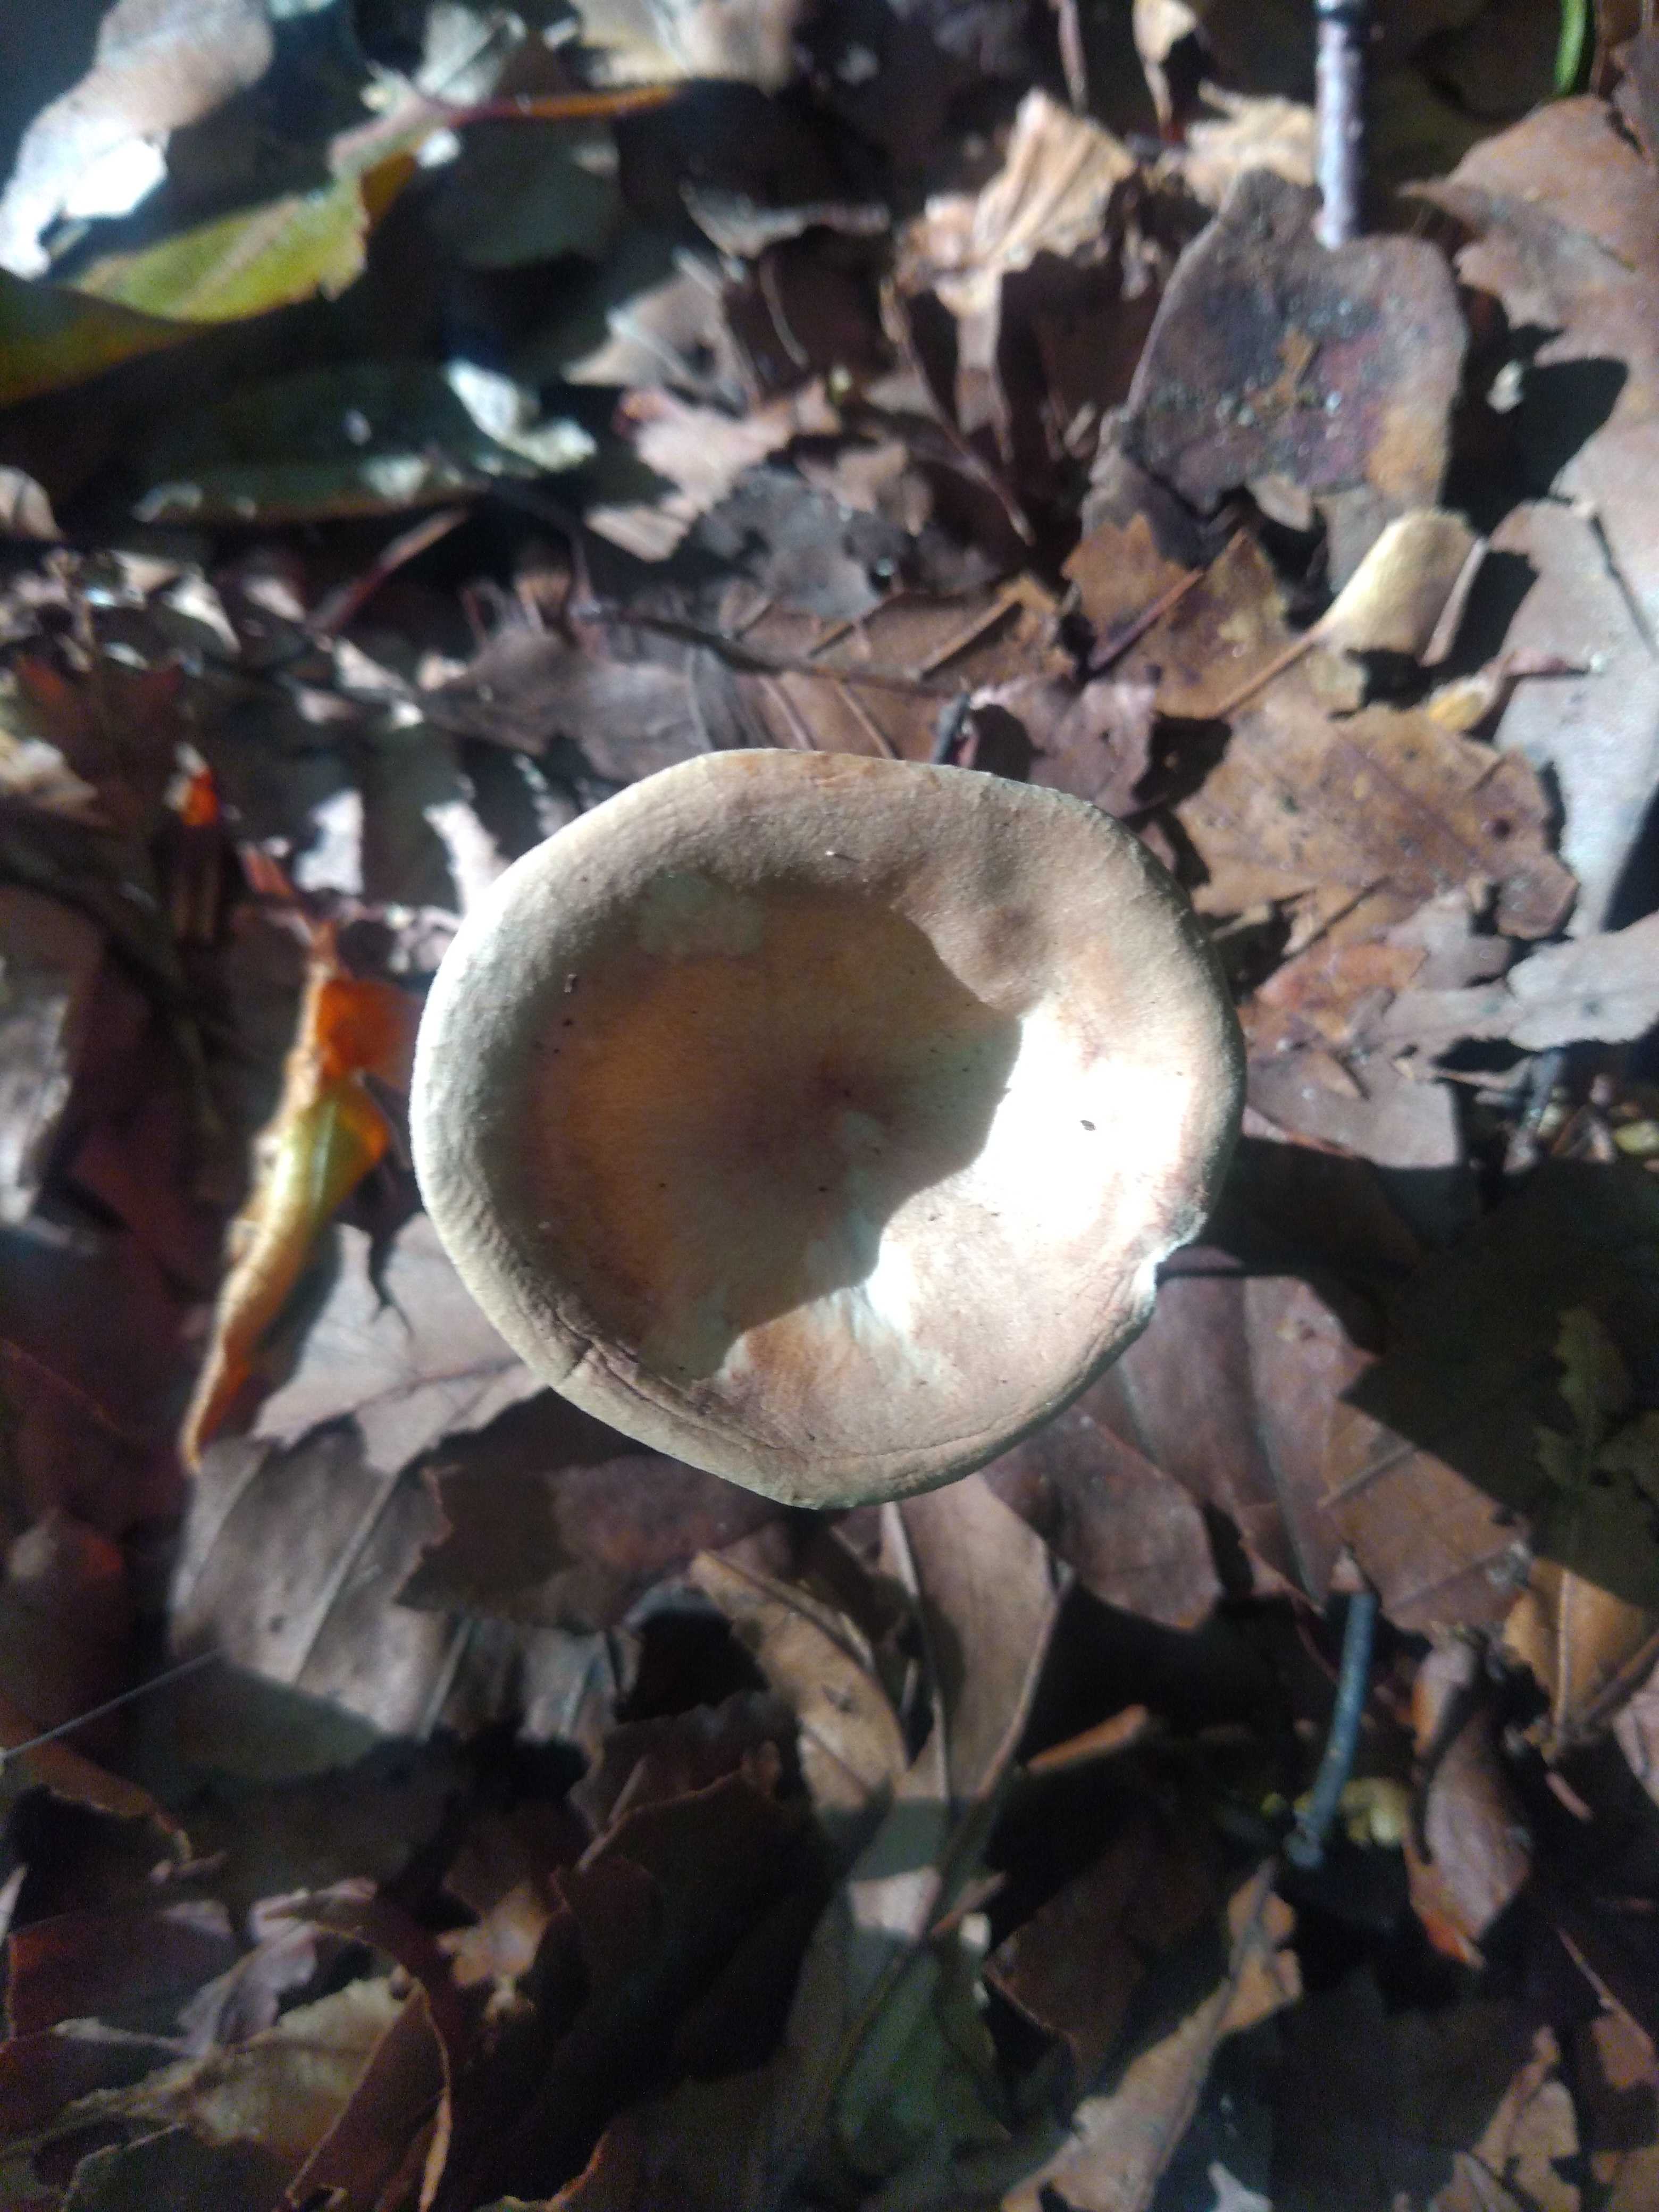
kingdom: Fungi
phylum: Basidiomycota
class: Agaricomycetes
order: Agaricales
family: Tricholomataceae
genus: Infundibulicybe
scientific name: Infundibulicybe gibba
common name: almindelig tragthat
